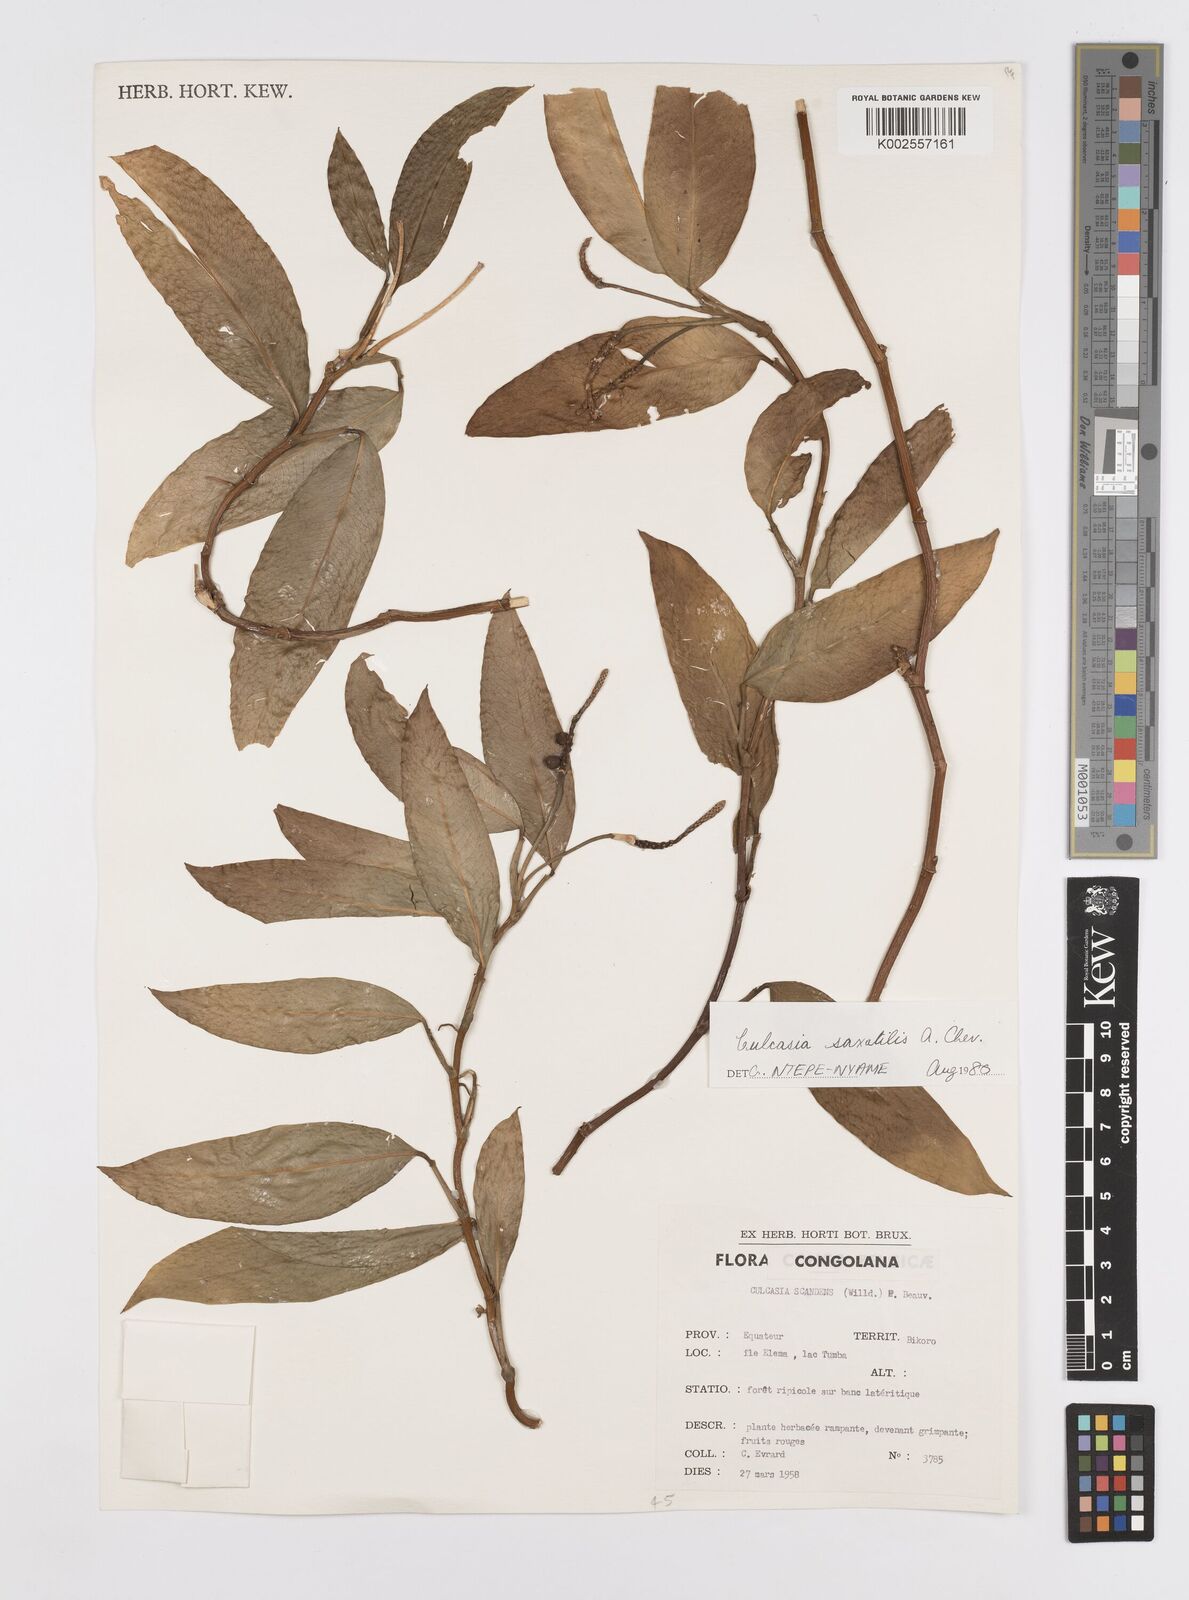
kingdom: Plantae
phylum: Tracheophyta
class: Liliopsida
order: Alismatales
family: Araceae
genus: Culcasia
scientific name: Culcasia scandens
